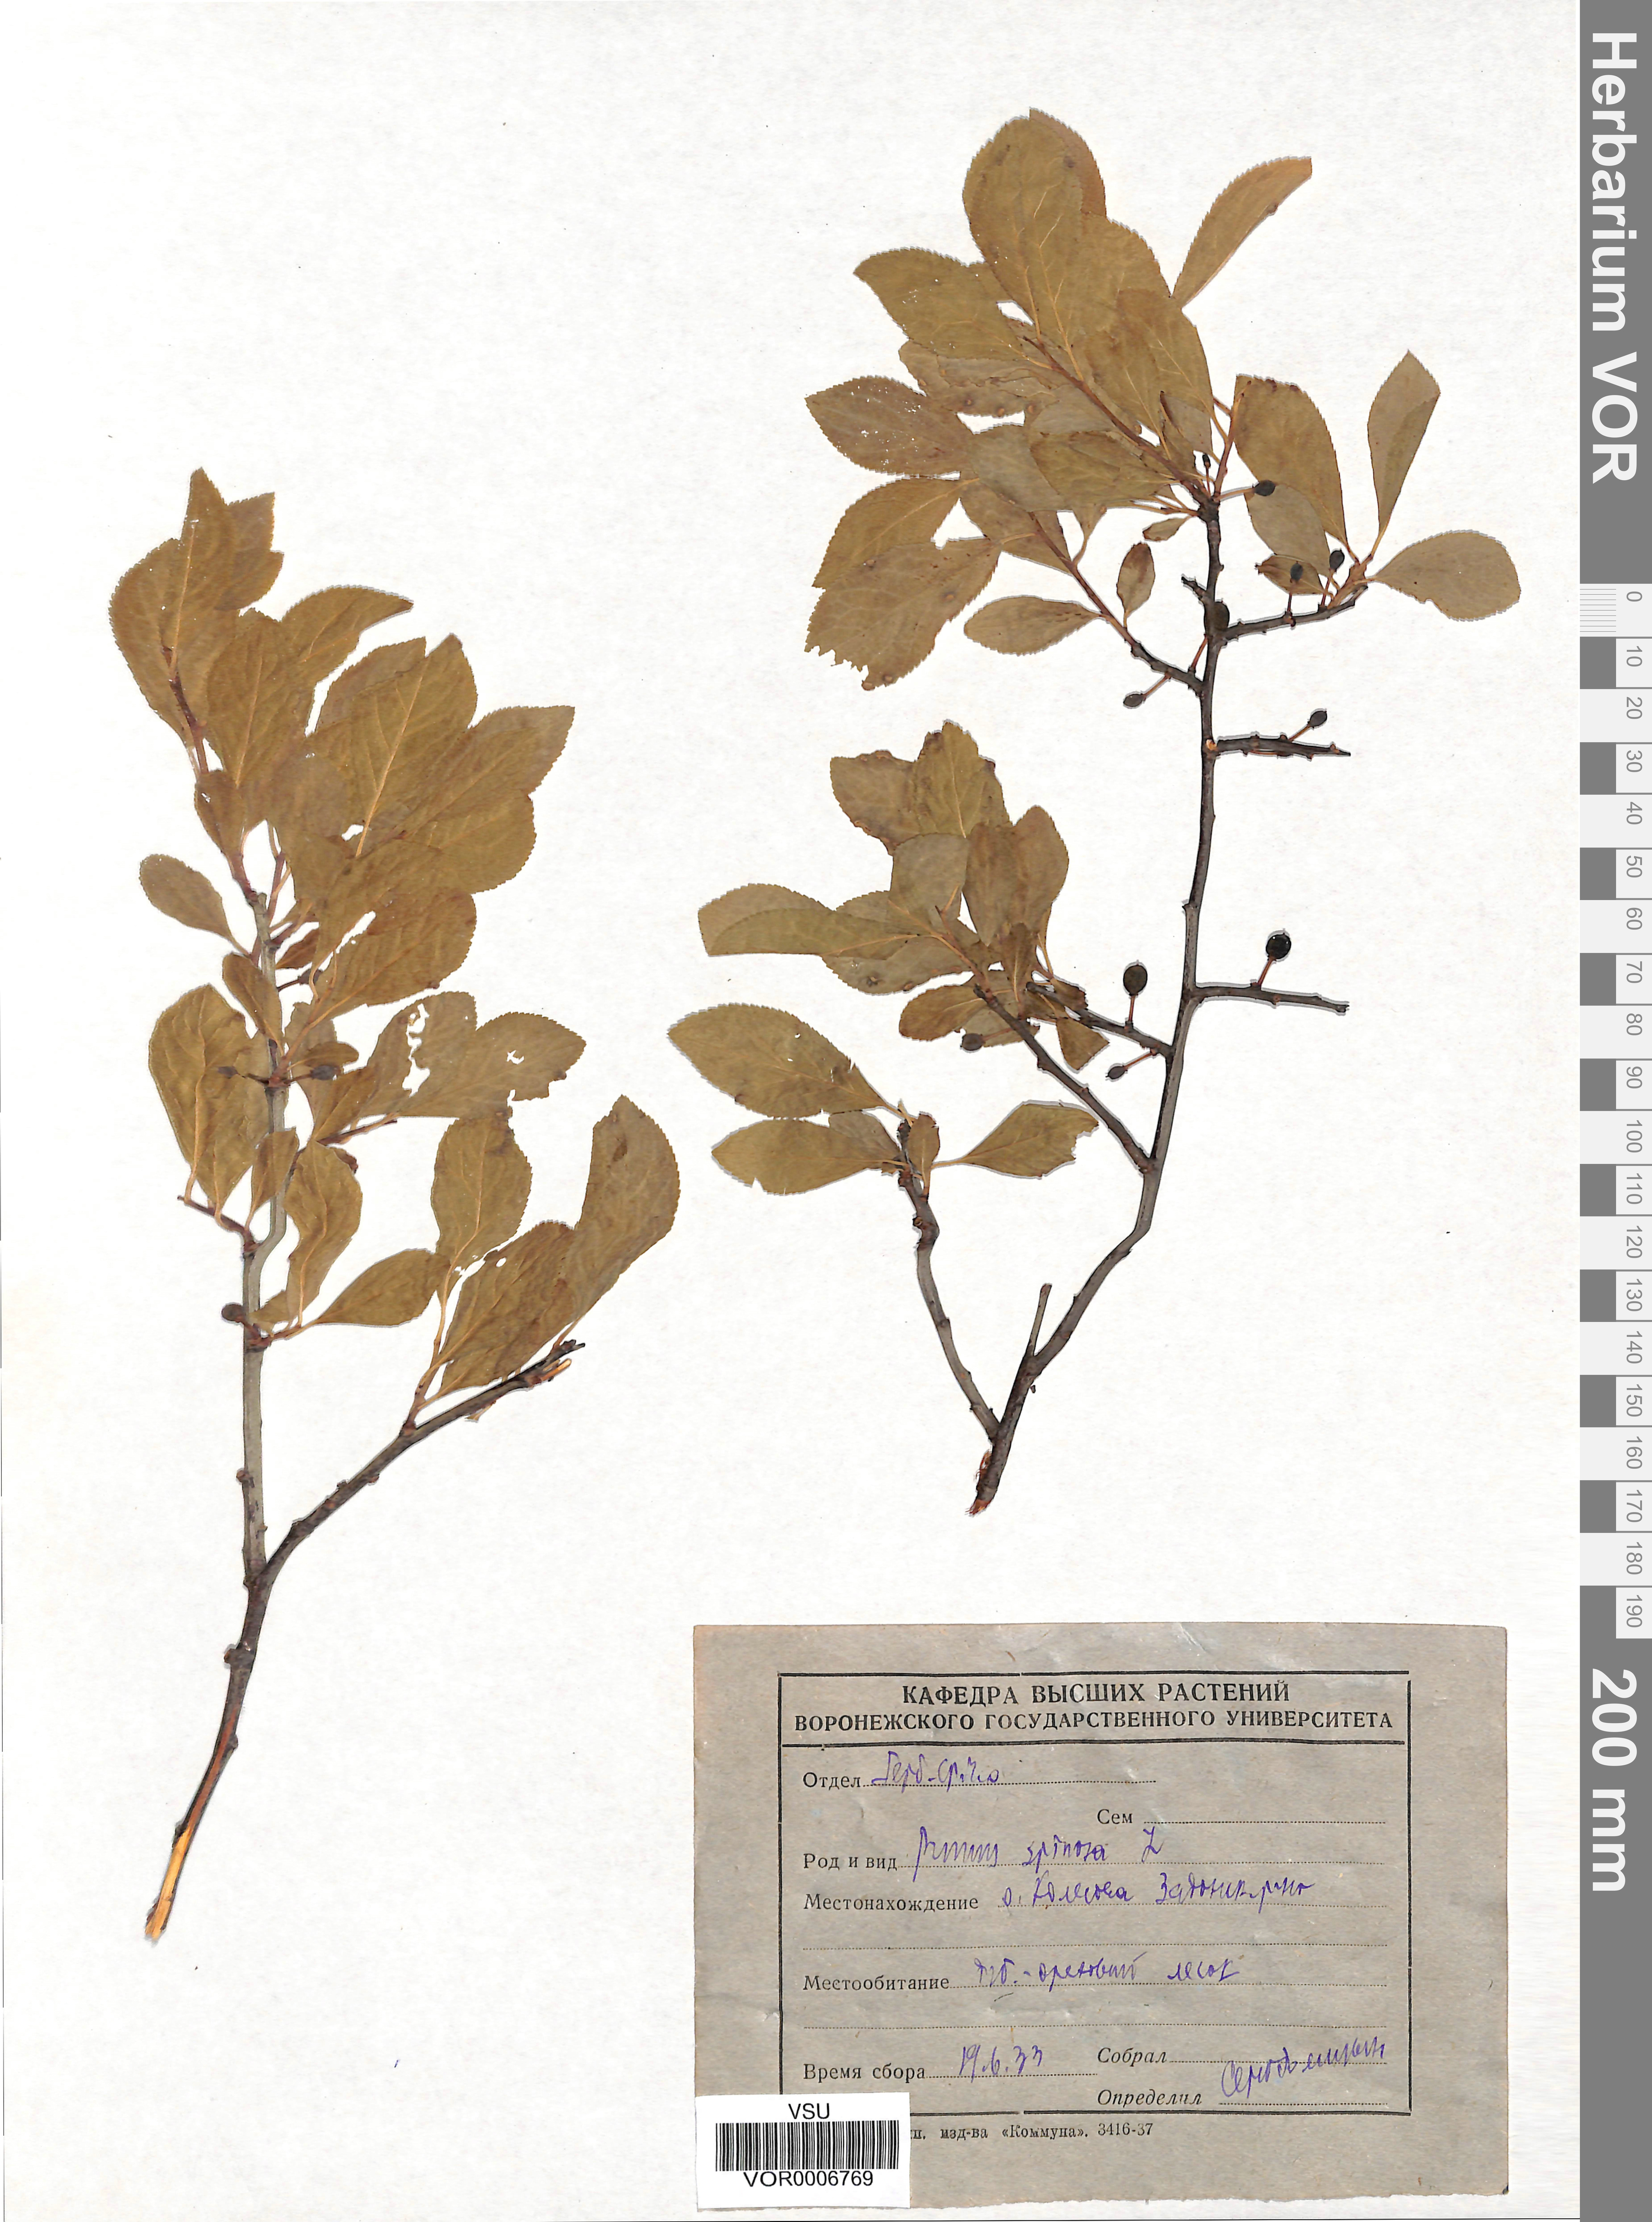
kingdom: Plantae
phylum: Tracheophyta
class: Magnoliopsida
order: Rosales
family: Rosaceae
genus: Prunus
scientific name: Prunus spinosa
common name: Blackthorn
